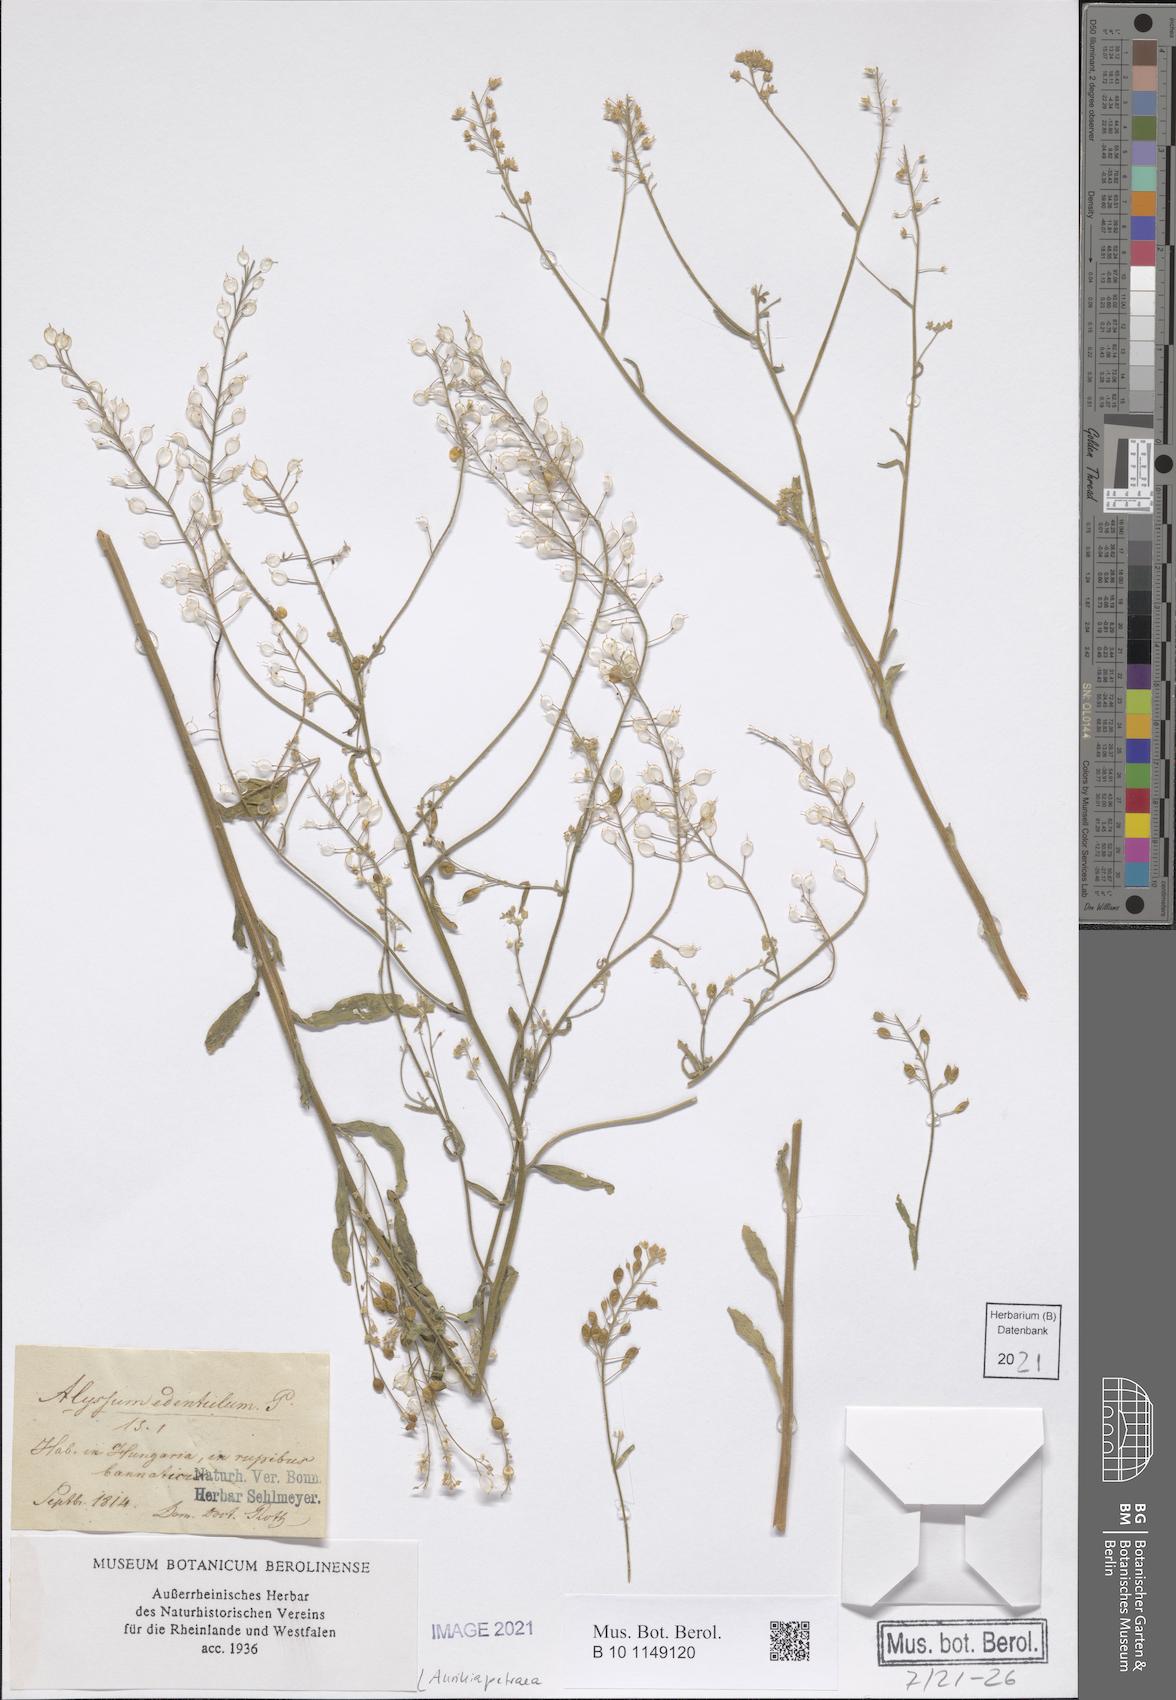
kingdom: Plantae
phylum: Tracheophyta
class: Magnoliopsida
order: Brassicales
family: Brassicaceae
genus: Aurinia
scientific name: Aurinia petraea
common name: Goldentuft
